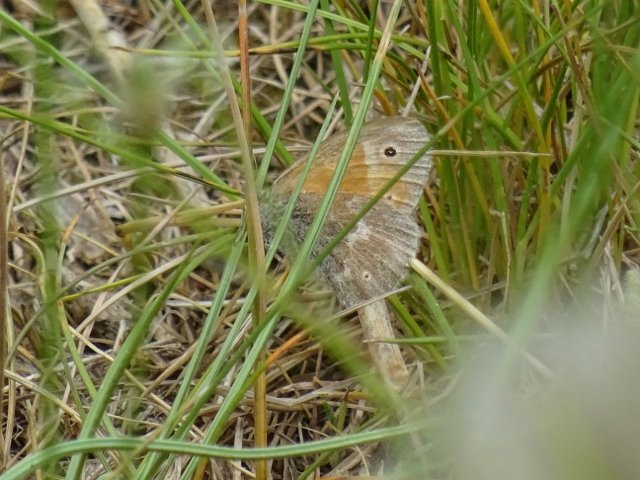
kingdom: Animalia
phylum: Arthropoda
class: Insecta
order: Lepidoptera
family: Nymphalidae
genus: Coenonympha
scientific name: Coenonympha tullia
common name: Large Heath
